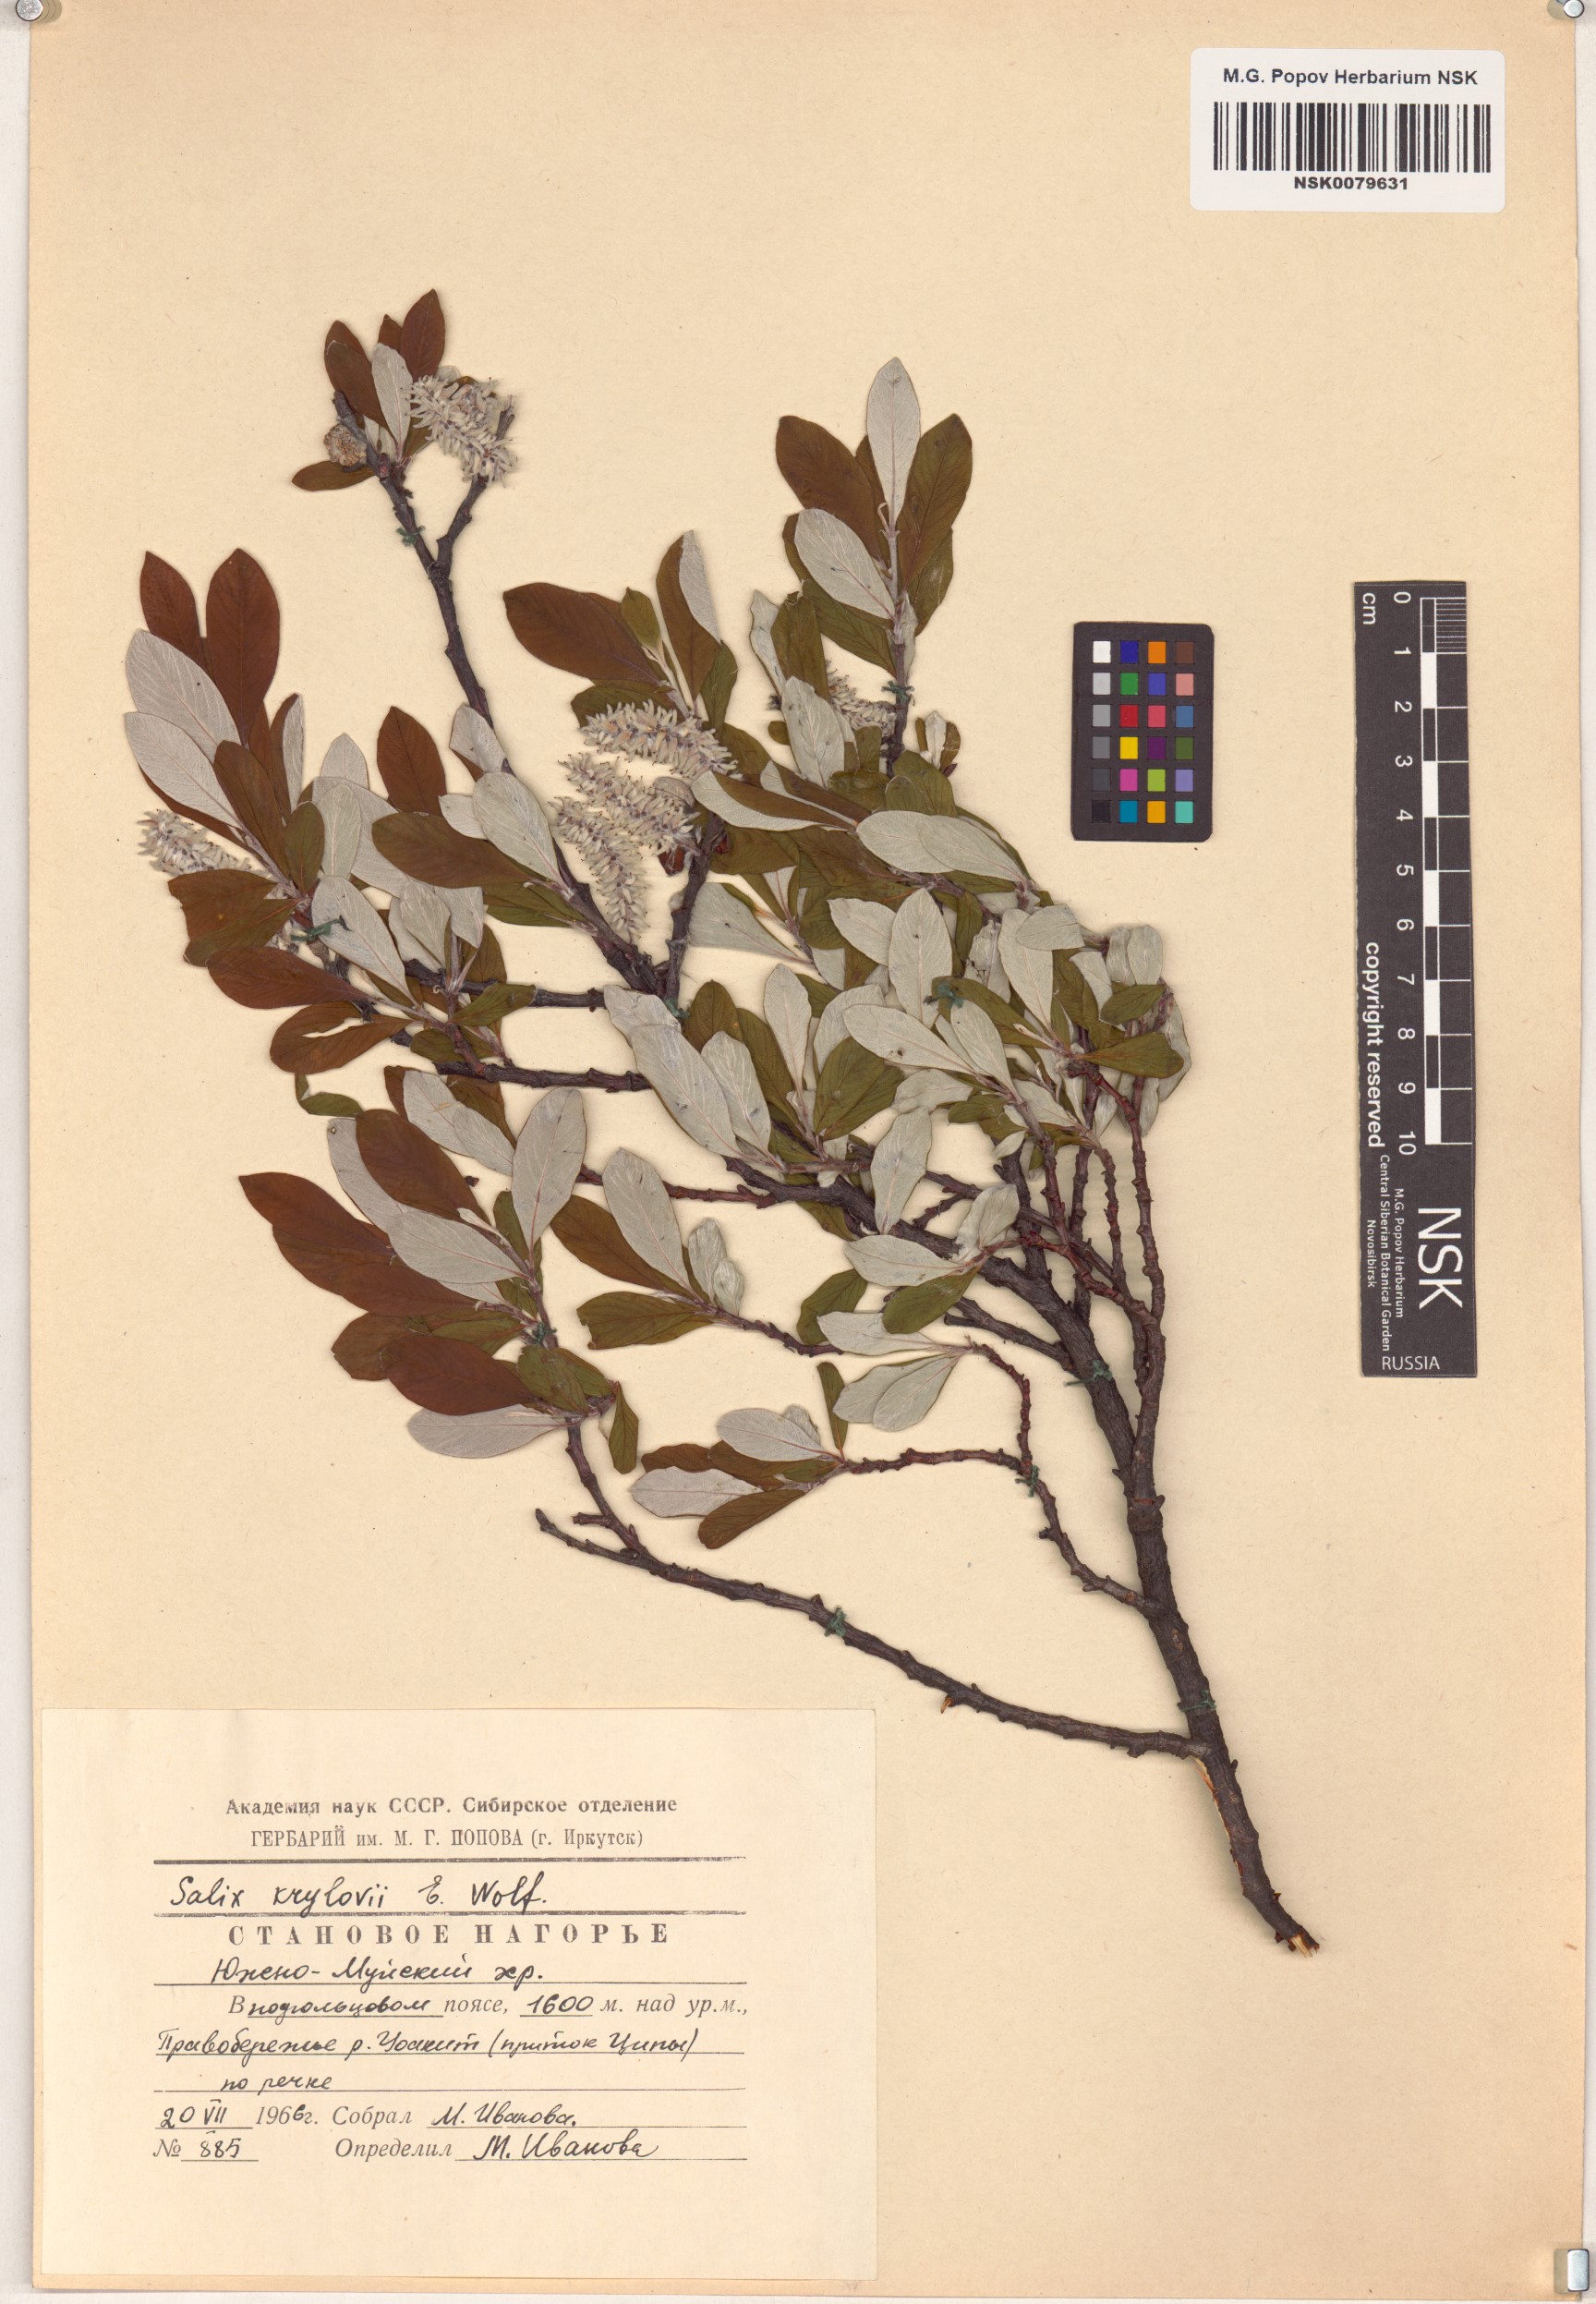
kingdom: Plantae
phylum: Tracheophyta
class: Magnoliopsida
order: Malpighiales
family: Salicaceae
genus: Salix
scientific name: Salix krylovii
